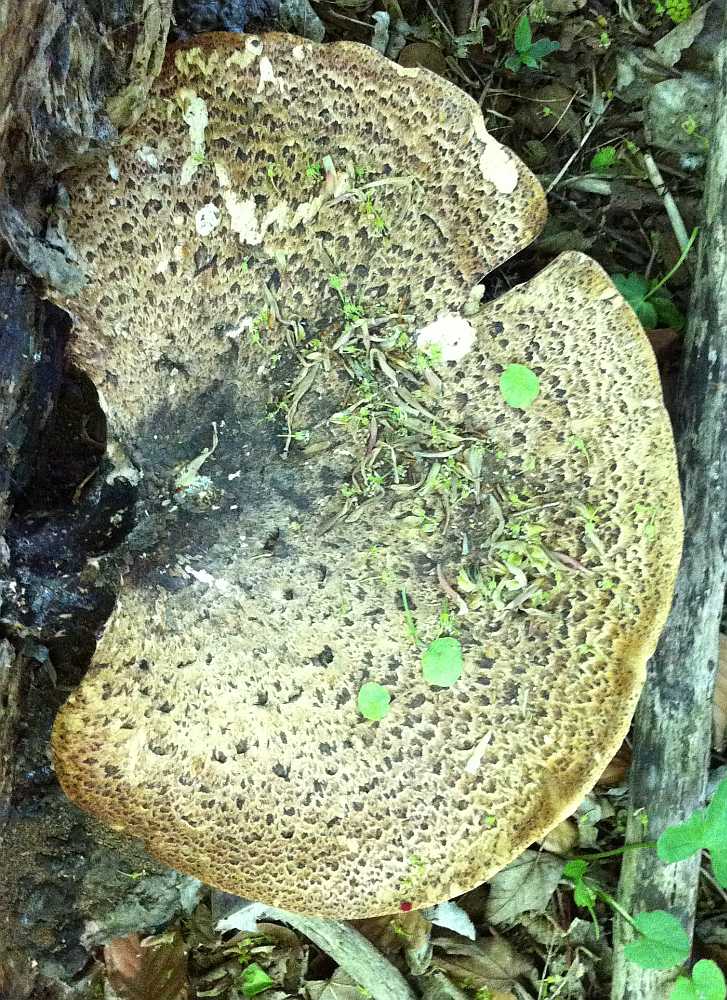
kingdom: Fungi
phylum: Basidiomycota
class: Agaricomycetes
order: Polyporales
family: Polyporaceae
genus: Cerioporus
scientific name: Cerioporus squamosus
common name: skællet stilkporesvamp
